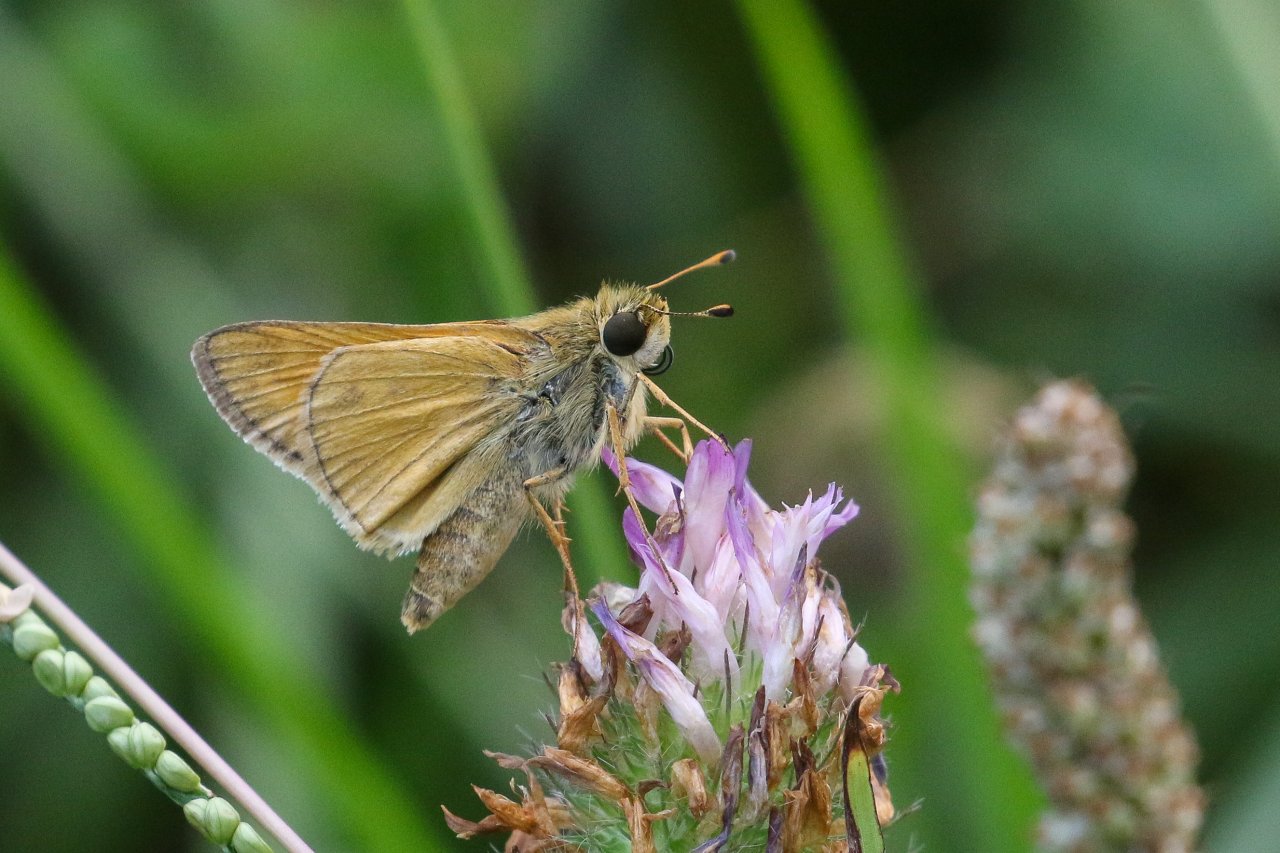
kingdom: Animalia
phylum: Arthropoda
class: Insecta
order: Lepidoptera
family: Hesperiidae
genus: Atalopedes
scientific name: Atalopedes campestris
